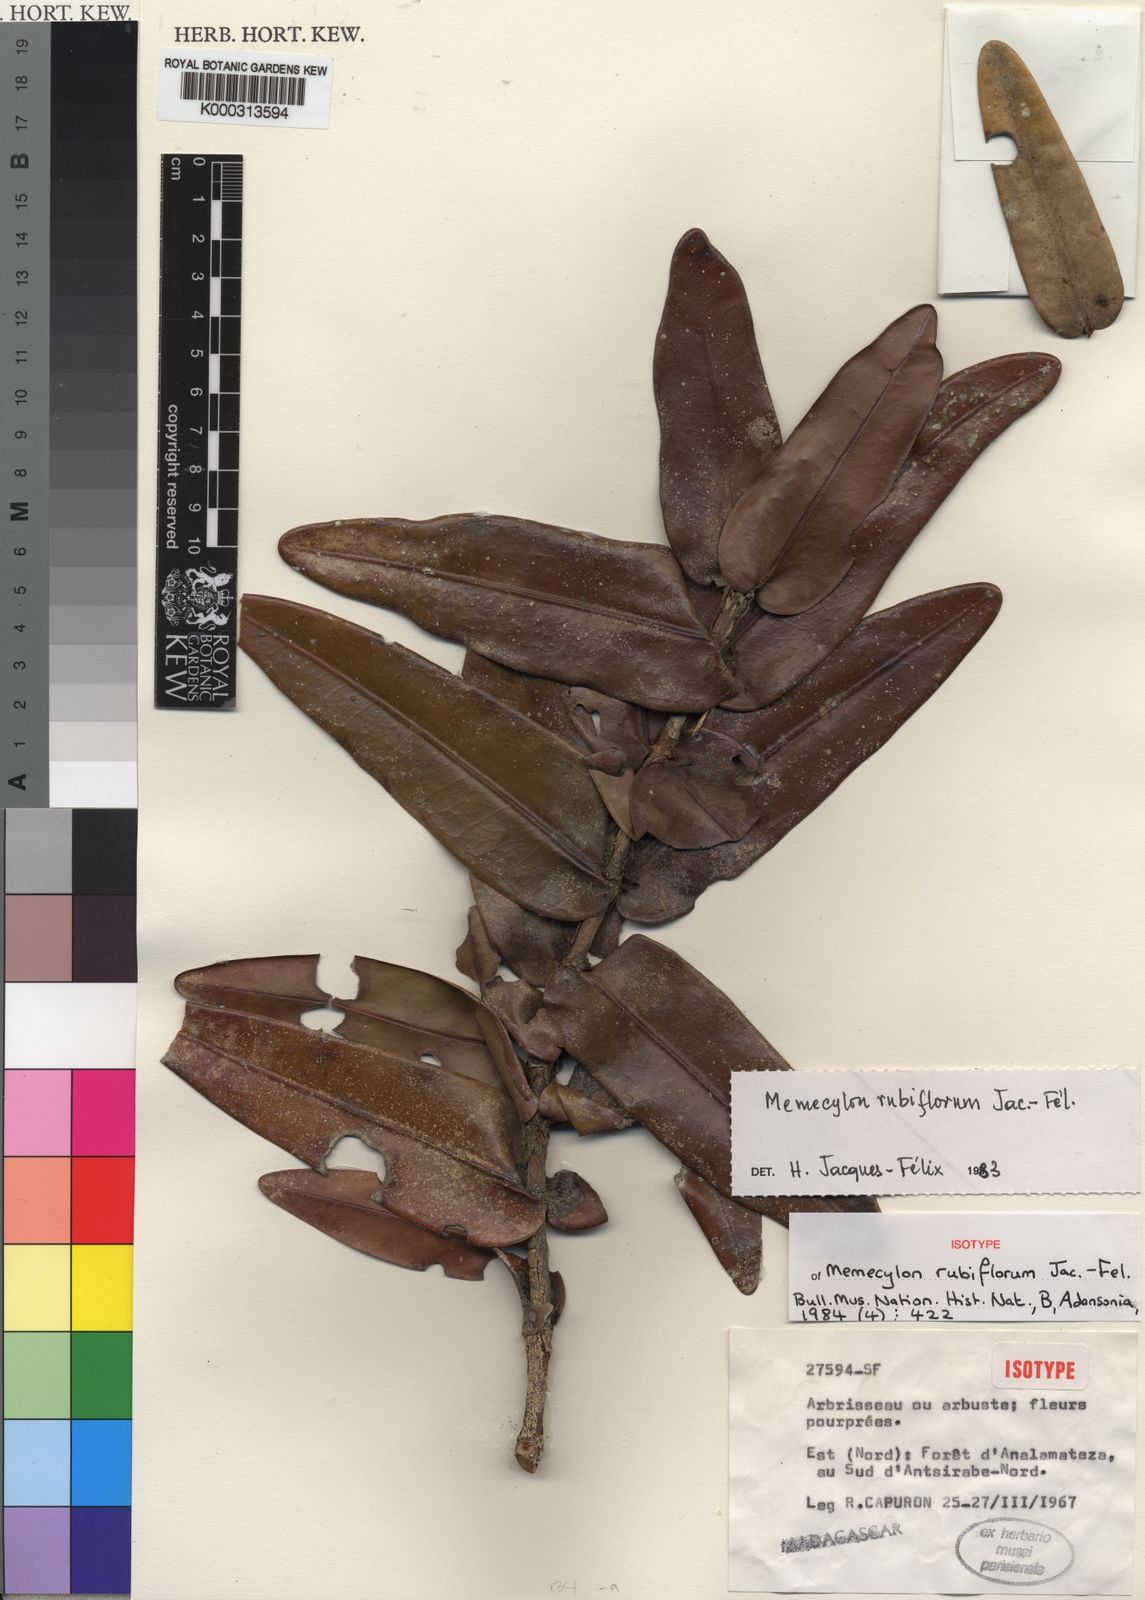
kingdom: Plantae
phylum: Tracheophyta
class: Magnoliopsida
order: Myrtales
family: Melastomataceae
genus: Memecylon
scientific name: Memecylon
